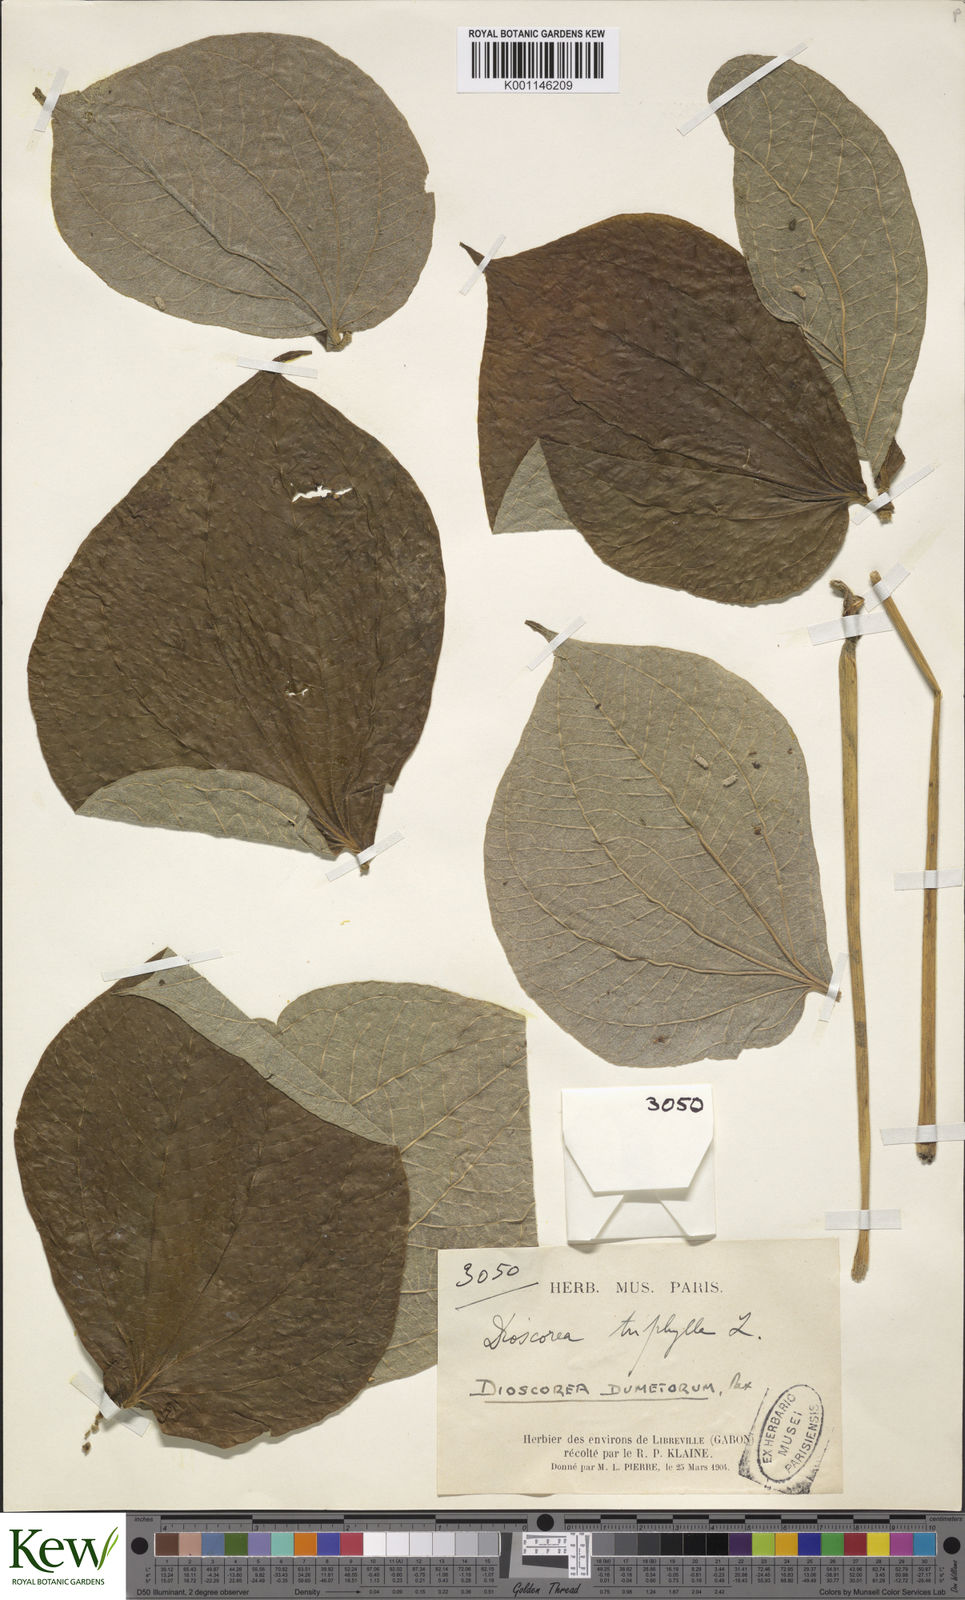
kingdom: Plantae
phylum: Tracheophyta
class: Liliopsida
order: Dioscoreales
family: Dioscoreaceae
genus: Dioscorea
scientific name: Dioscorea dumetorum
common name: African bitter yam
